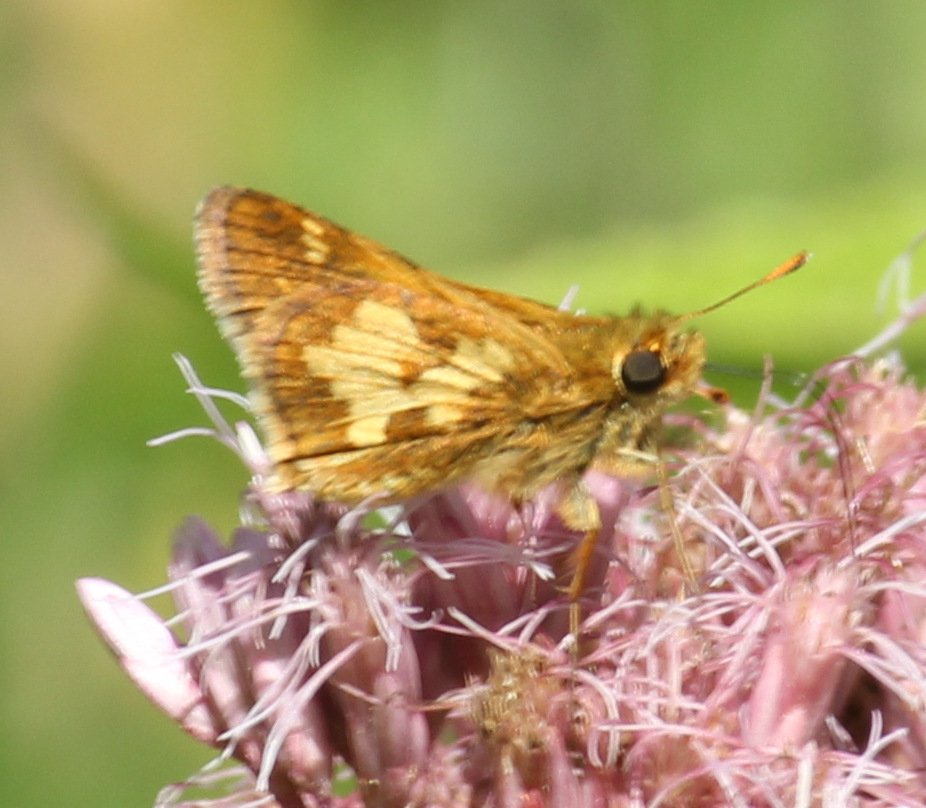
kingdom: Animalia
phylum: Arthropoda
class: Insecta
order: Lepidoptera
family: Hesperiidae
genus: Polites
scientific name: Polites coras
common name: Peck's Skipper
